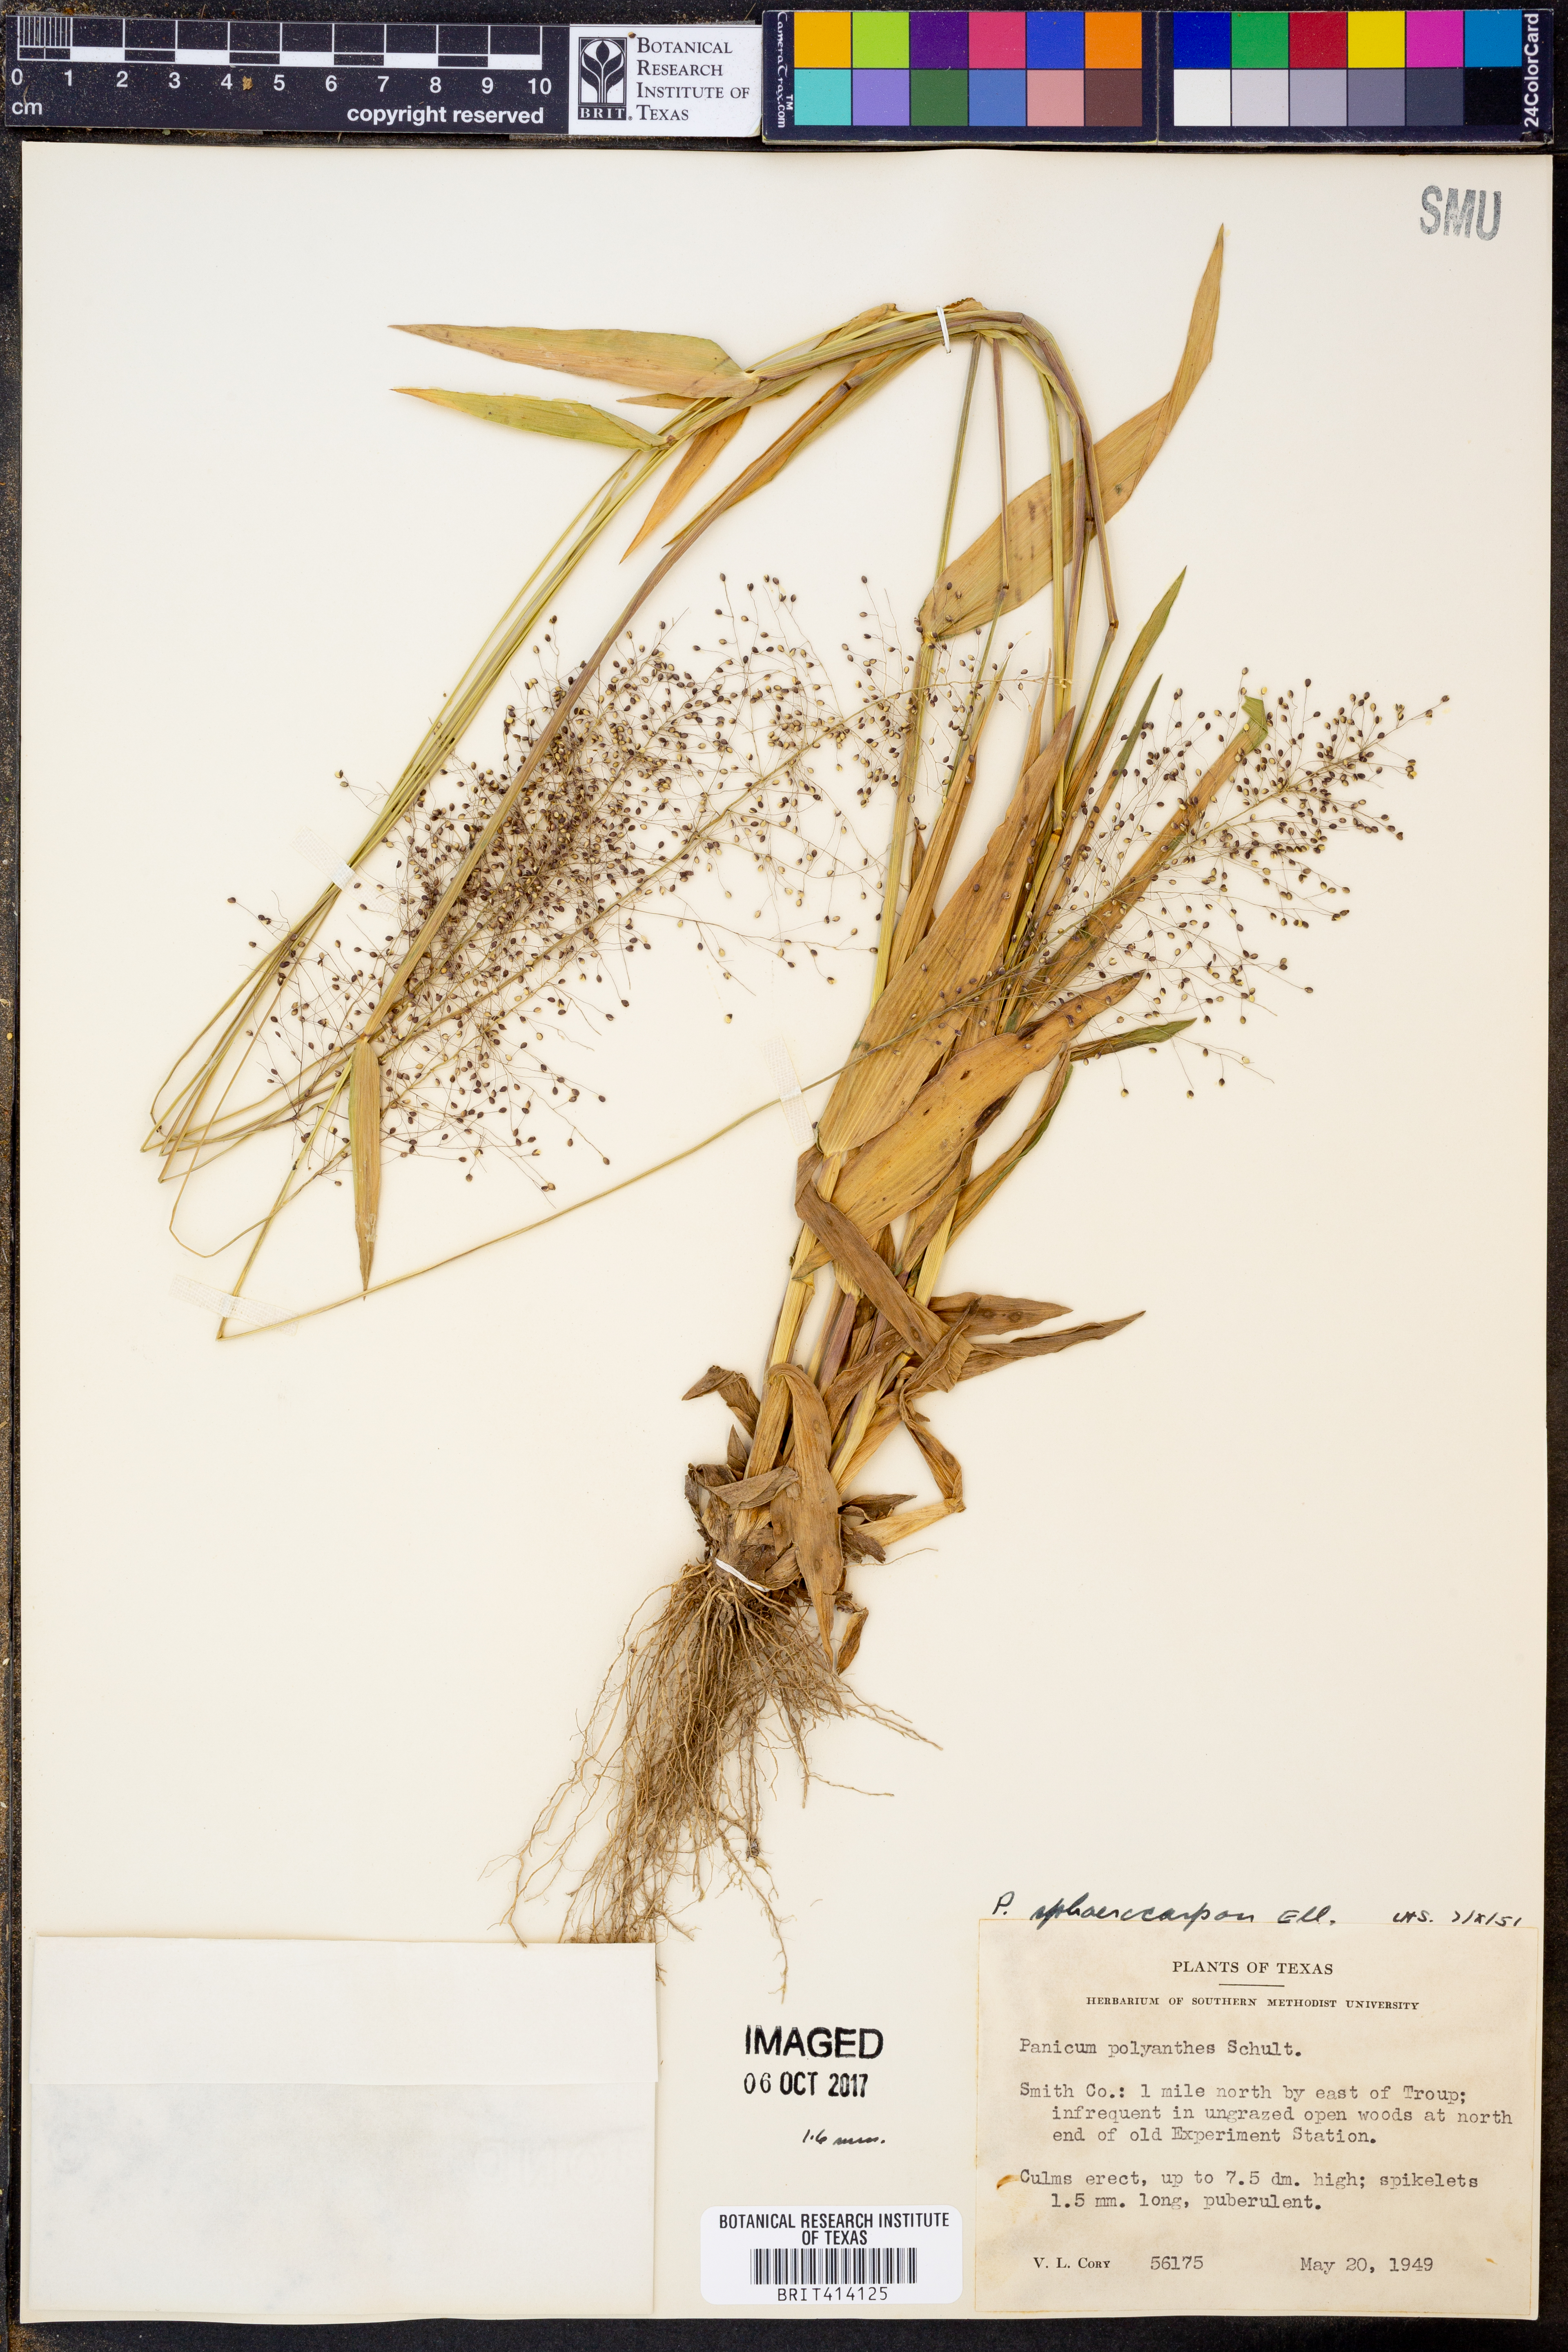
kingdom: Plantae
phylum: Tracheophyta
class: Liliopsida
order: Poales
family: Poaceae
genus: Dichanthelium
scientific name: Dichanthelium polyanthes
